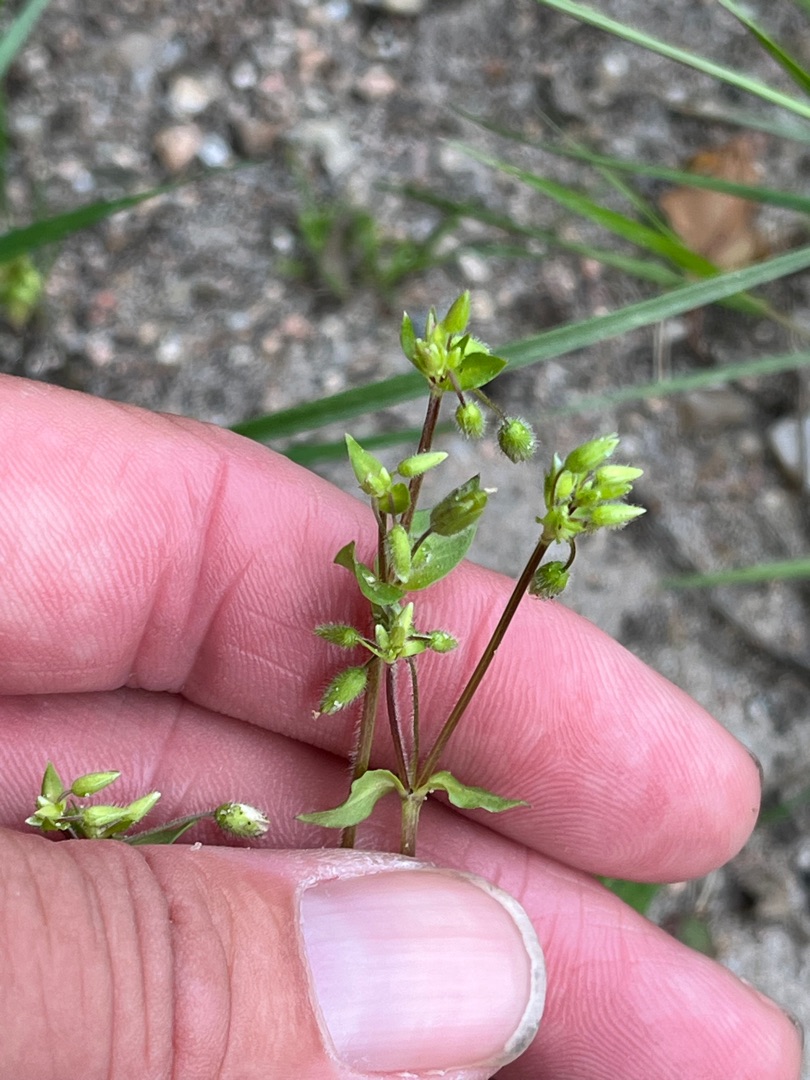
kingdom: Plantae
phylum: Tracheophyta
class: Magnoliopsida
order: Caryophyllales
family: Caryophyllaceae
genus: Stellaria
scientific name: Stellaria media
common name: Almindelig fuglegræs
